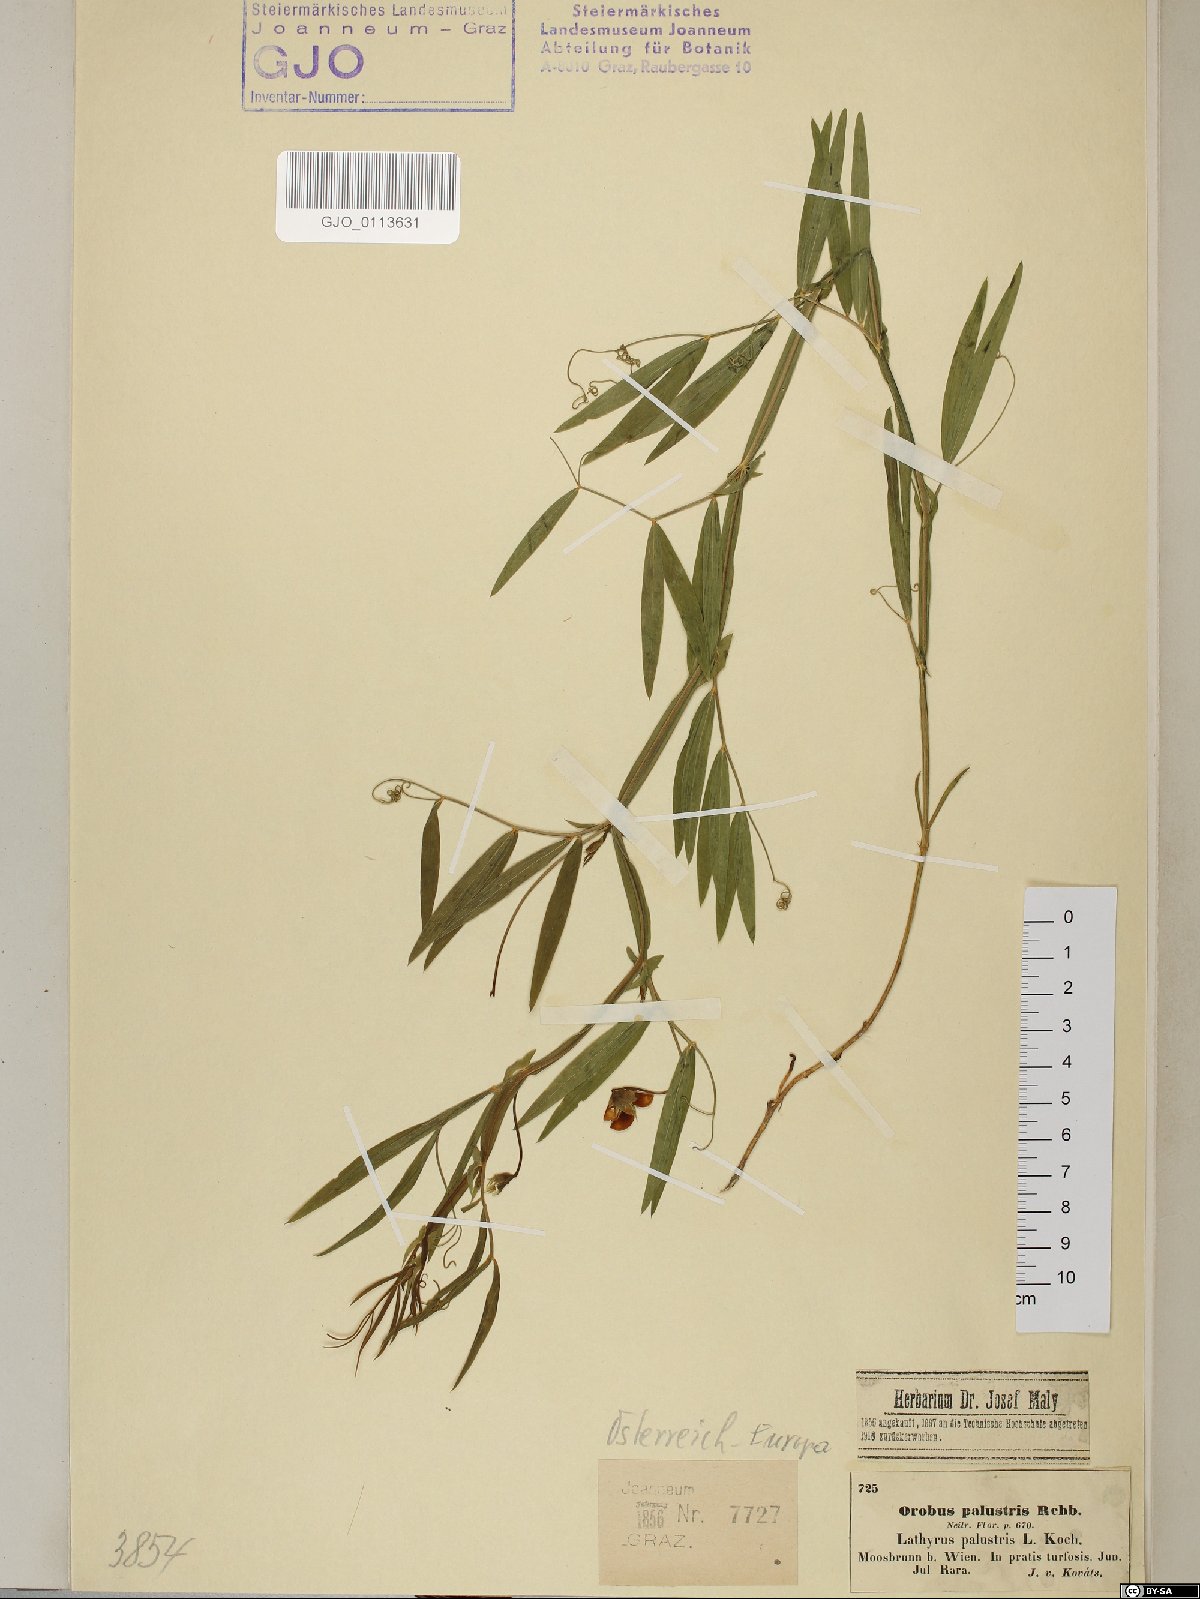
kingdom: Plantae
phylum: Tracheophyta
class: Magnoliopsida
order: Fabales
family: Fabaceae
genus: Lathyrus
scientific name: Lathyrus palustris
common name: Marsh pea
